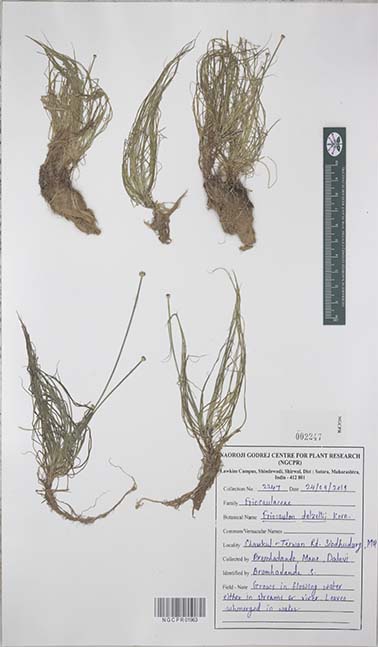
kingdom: Plantae
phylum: Tracheophyta
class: Liliopsida
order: Poales
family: Eriocaulaceae
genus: Eriocaulon
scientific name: Eriocaulon dalzellii
